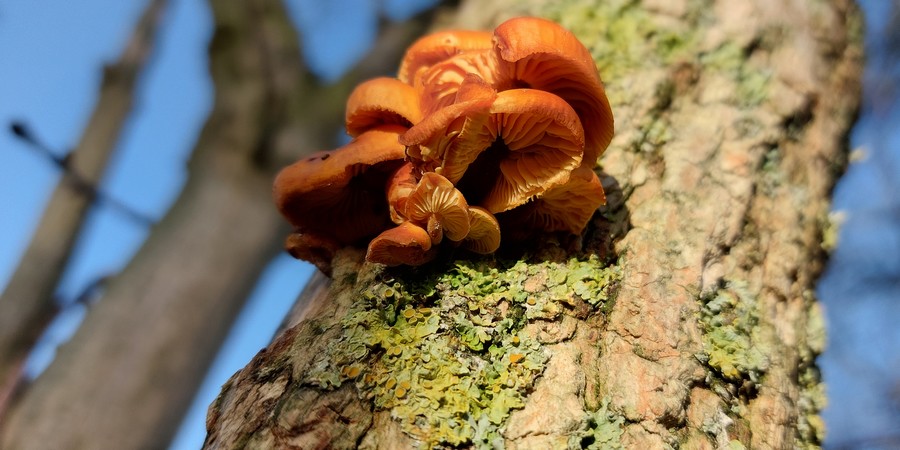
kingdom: Fungi
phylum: Basidiomycota
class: Agaricomycetes
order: Agaricales
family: Physalacriaceae
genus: Flammulina
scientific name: Flammulina velutipes
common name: gul fløjlsfod
